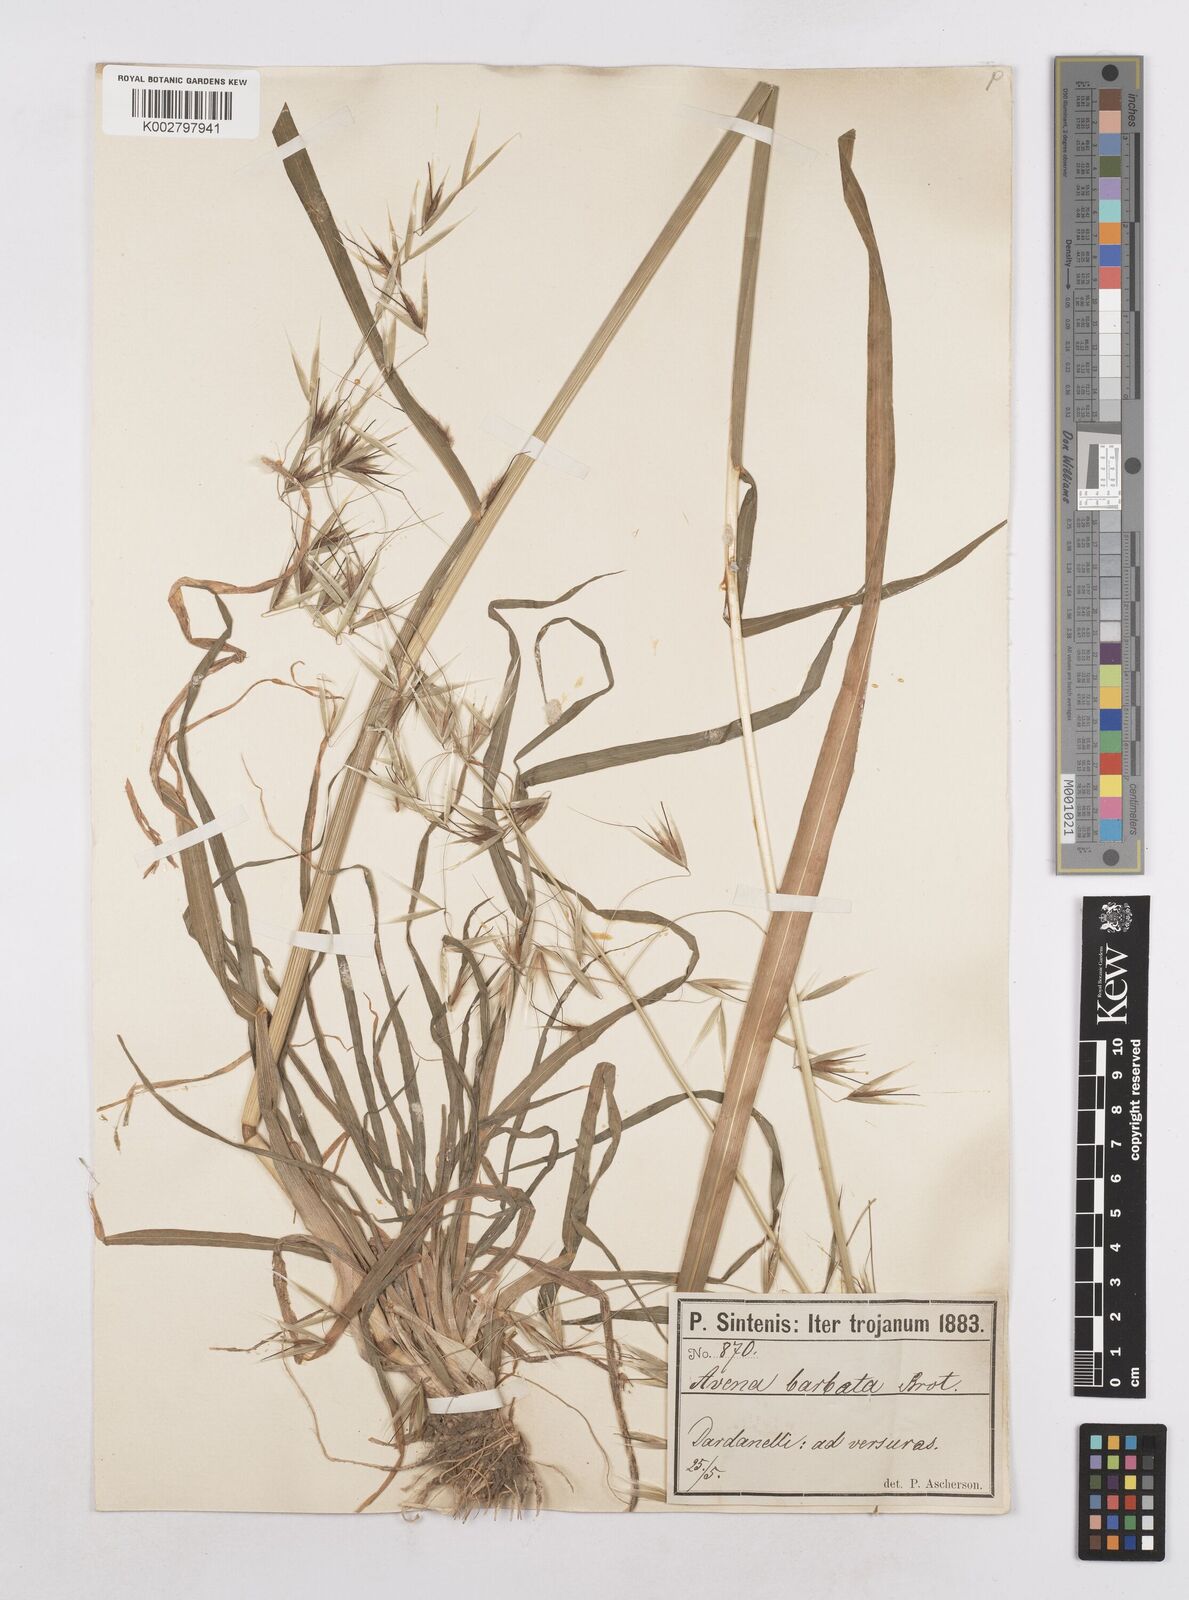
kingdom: Plantae
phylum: Tracheophyta
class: Liliopsida
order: Poales
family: Poaceae
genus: Avena
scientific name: Avena
